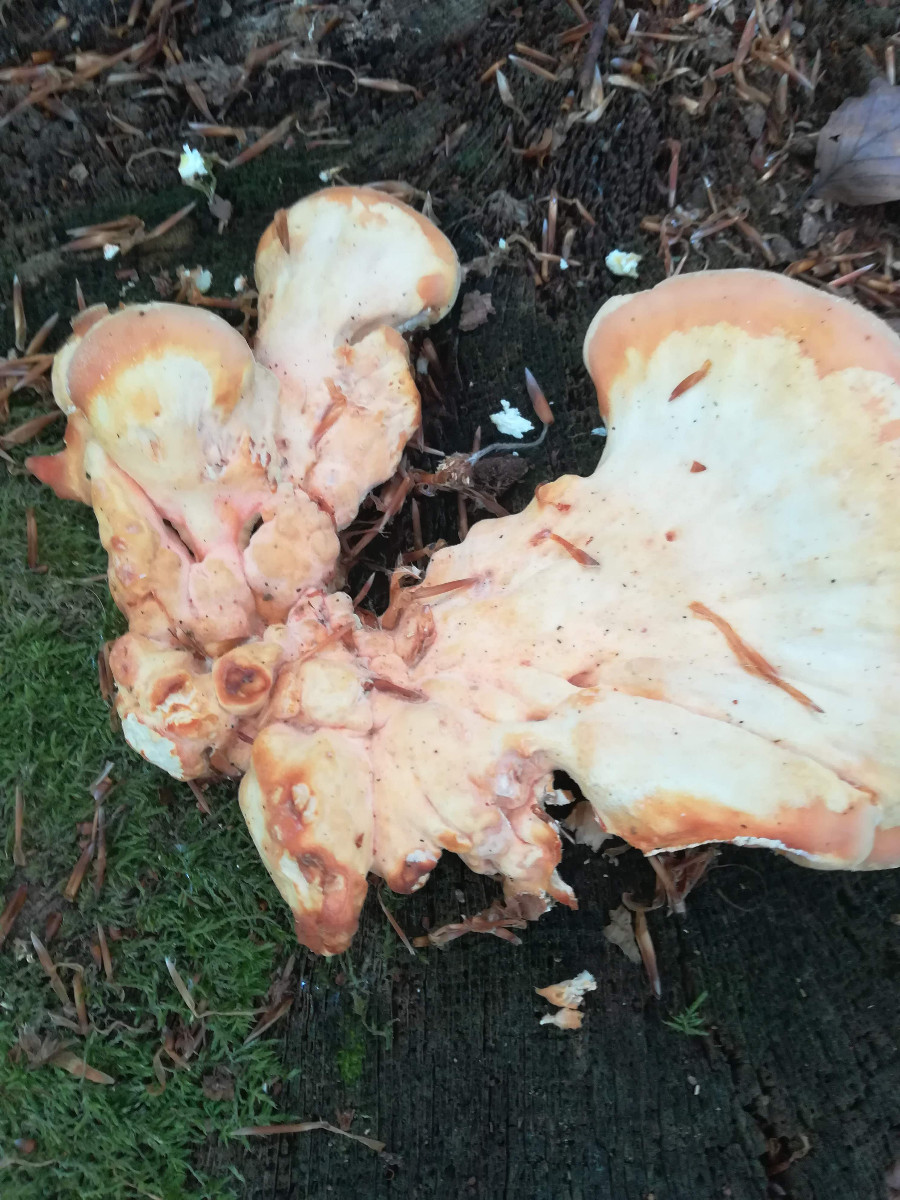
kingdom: Fungi
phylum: Basidiomycota
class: Agaricomycetes
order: Polyporales
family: Laetiporaceae
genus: Laetiporus
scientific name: Laetiporus sulphureus
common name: svovlporesvamp
